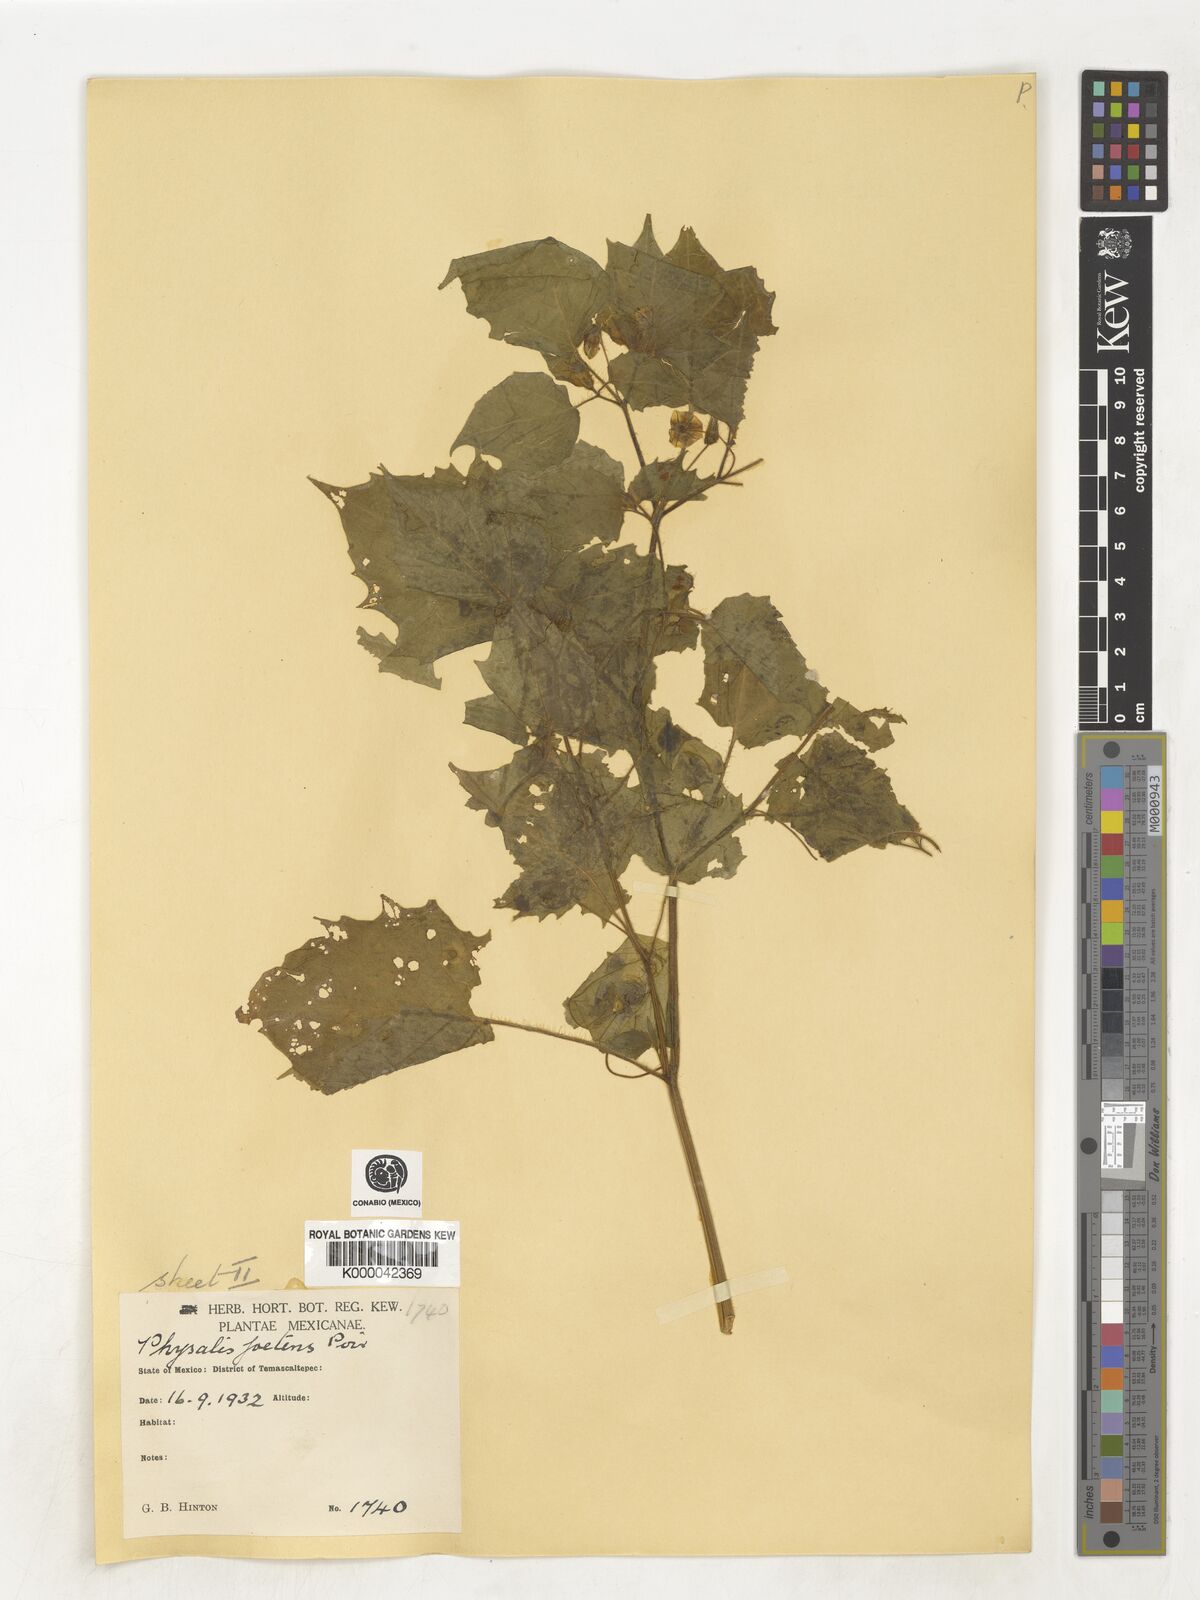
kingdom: Plantae
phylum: Tracheophyta
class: Magnoliopsida
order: Solanales
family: Solanaceae
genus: Physalis
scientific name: Physalis pubescens
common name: Downy ground-cherry
